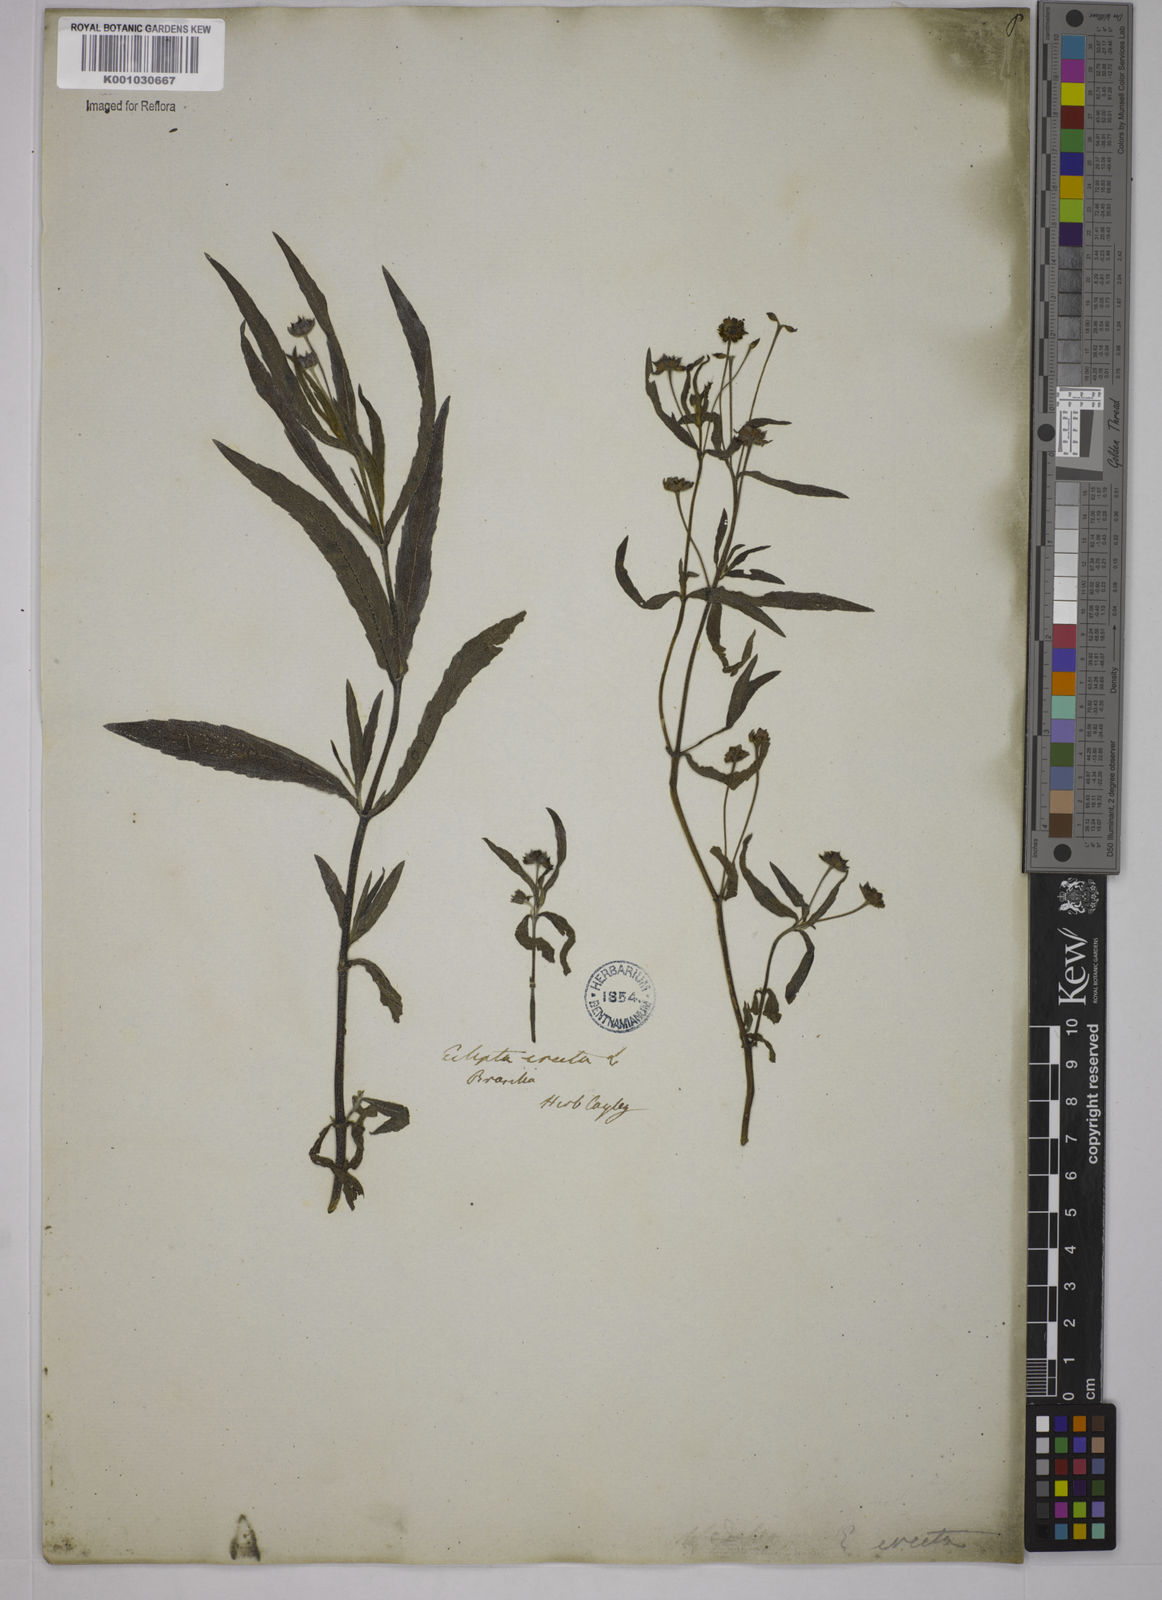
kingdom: Plantae
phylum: Tracheophyta
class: Magnoliopsida
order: Asterales
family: Asteraceae
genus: Eclipta
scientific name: Eclipta prostrata
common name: False daisy
